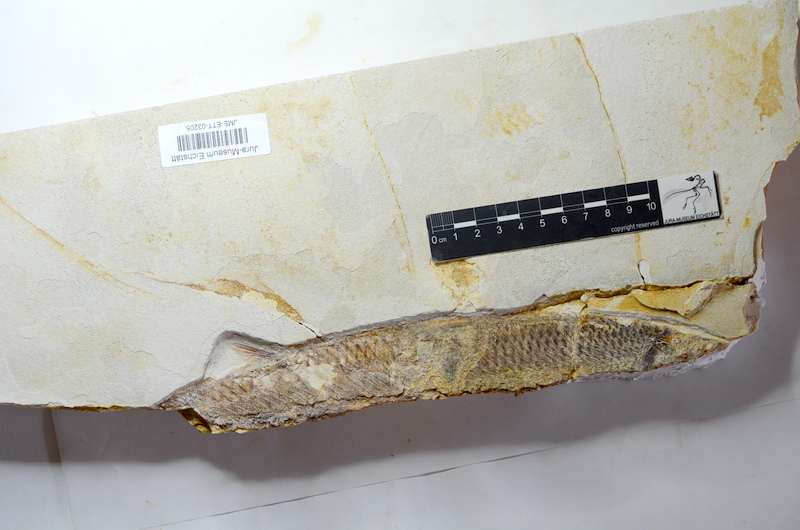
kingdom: Animalia
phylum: Chordata
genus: Thrissops
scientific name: Thrissops formosus
